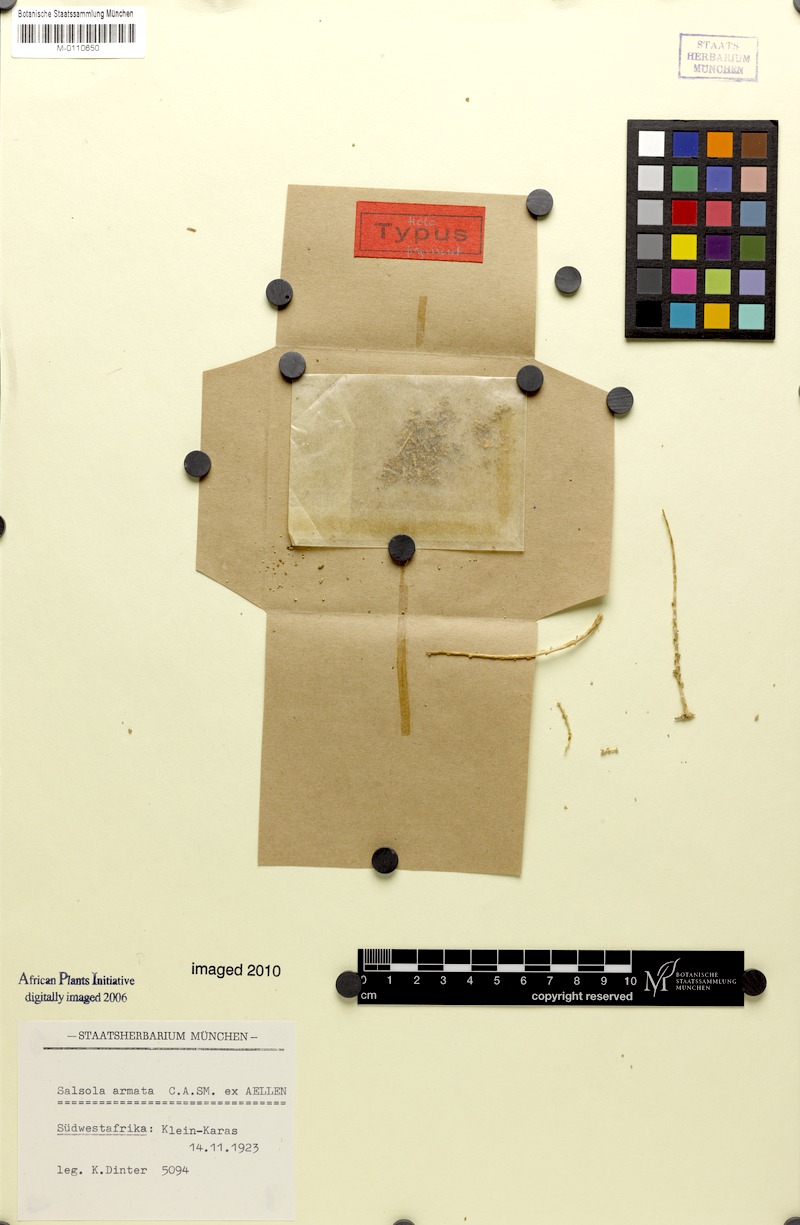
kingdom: Plantae
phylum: Tracheophyta
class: Magnoliopsida
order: Caryophyllales
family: Amaranthaceae
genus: Caroxylon
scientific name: Caroxylon armatum
